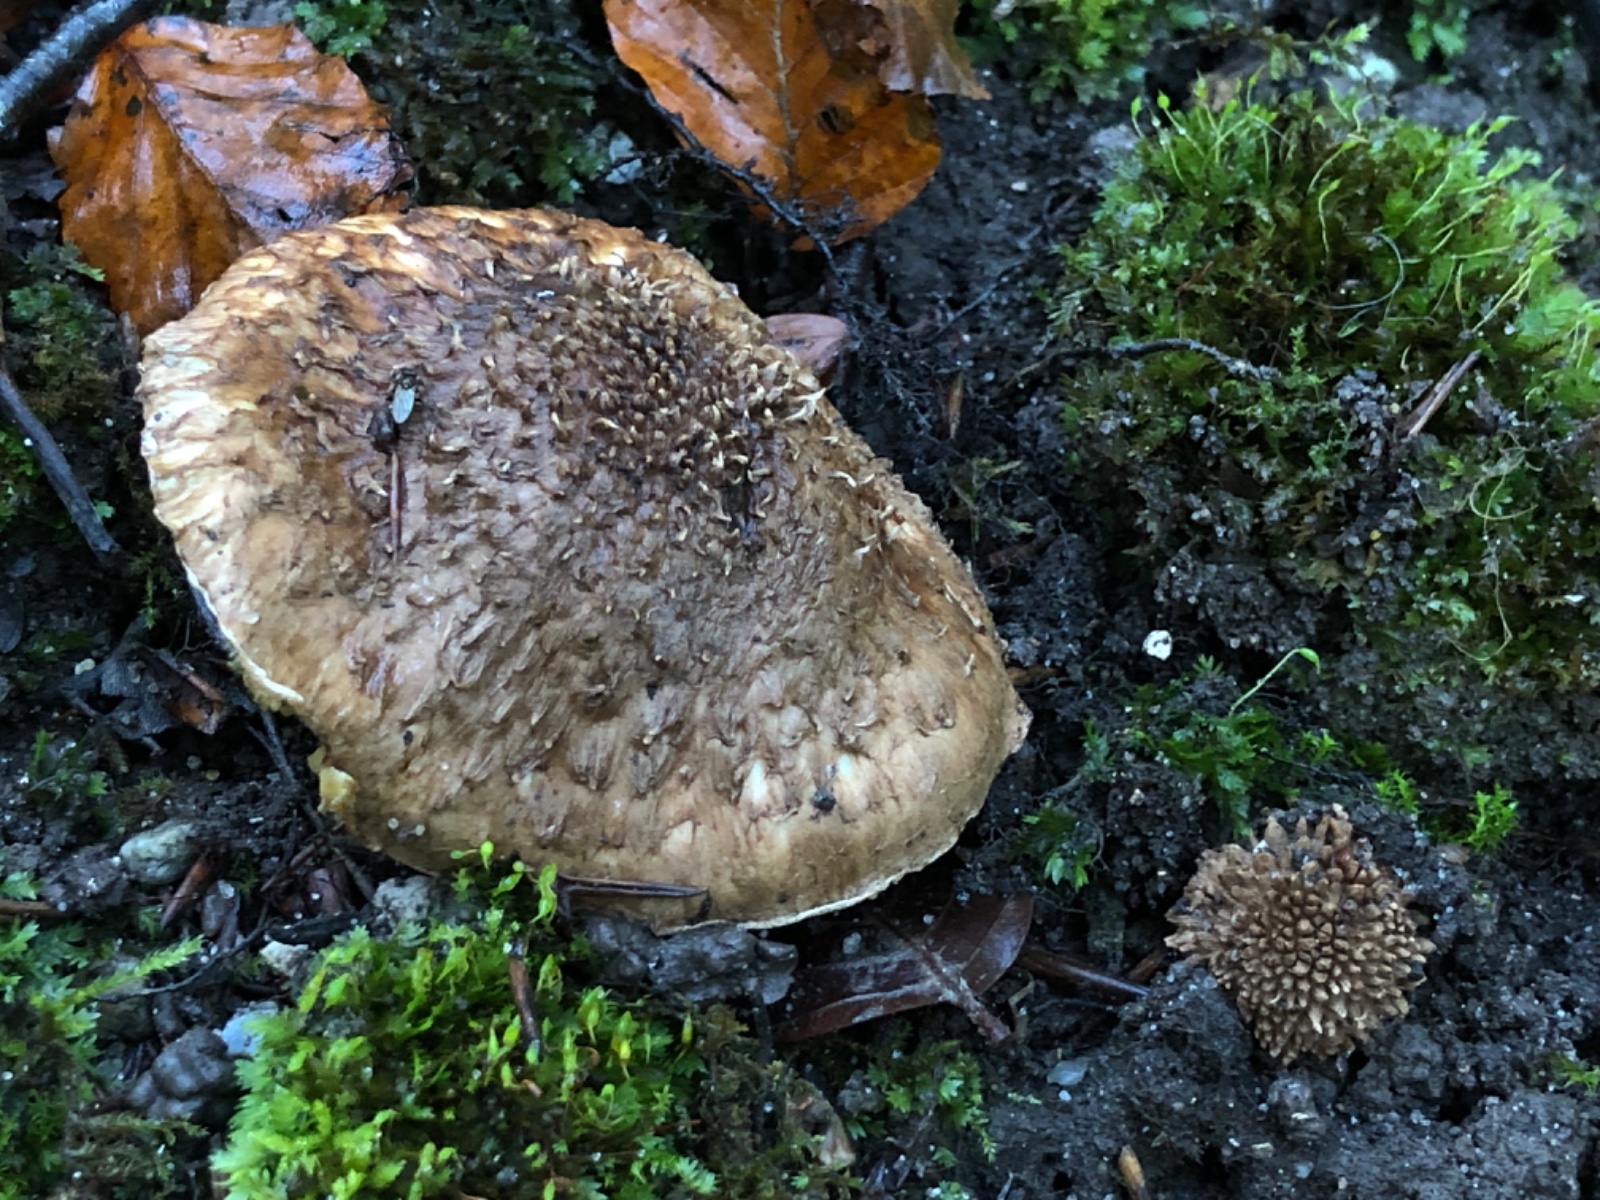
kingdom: Fungi
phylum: Basidiomycota
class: Agaricomycetes
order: Agaricales
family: Agaricaceae
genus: Echinoderma
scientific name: Echinoderma calcicola
